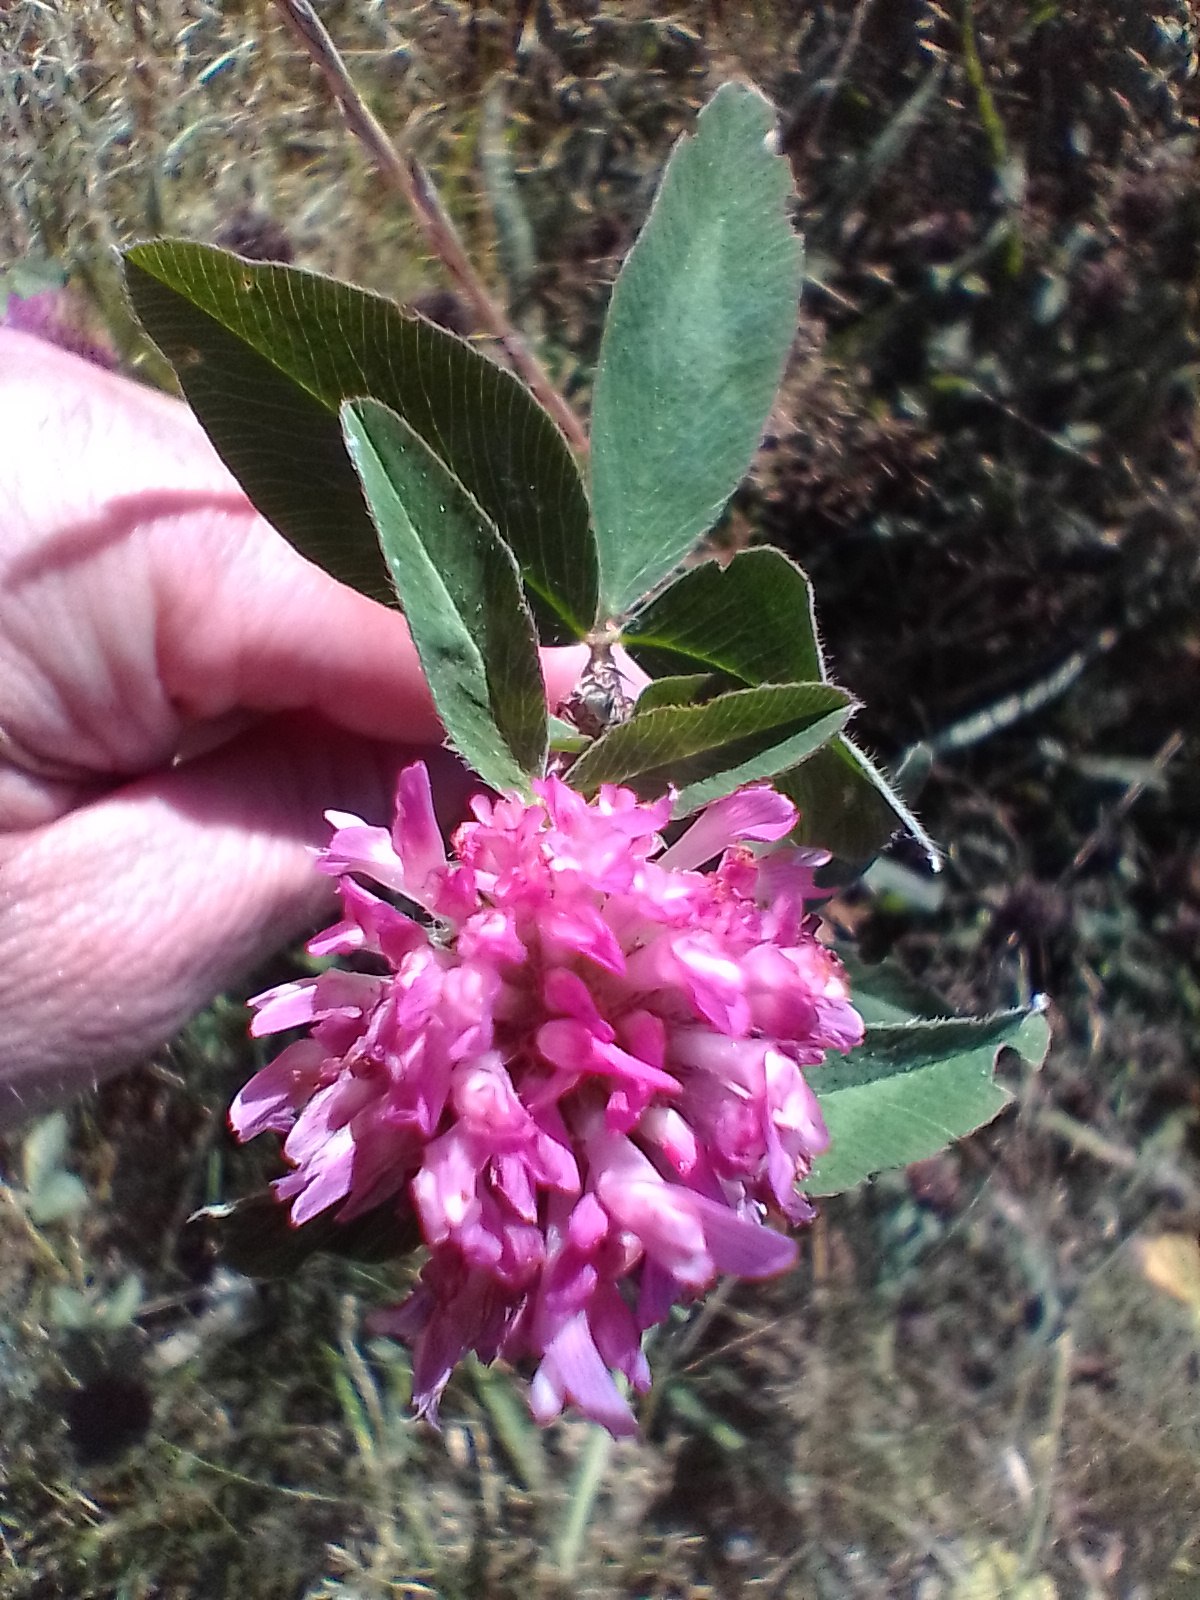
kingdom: Plantae
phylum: Tracheophyta
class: Magnoliopsida
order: Fabales
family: Fabaceae
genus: Trifolium
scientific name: Trifolium medium
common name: Bugtet kløver
